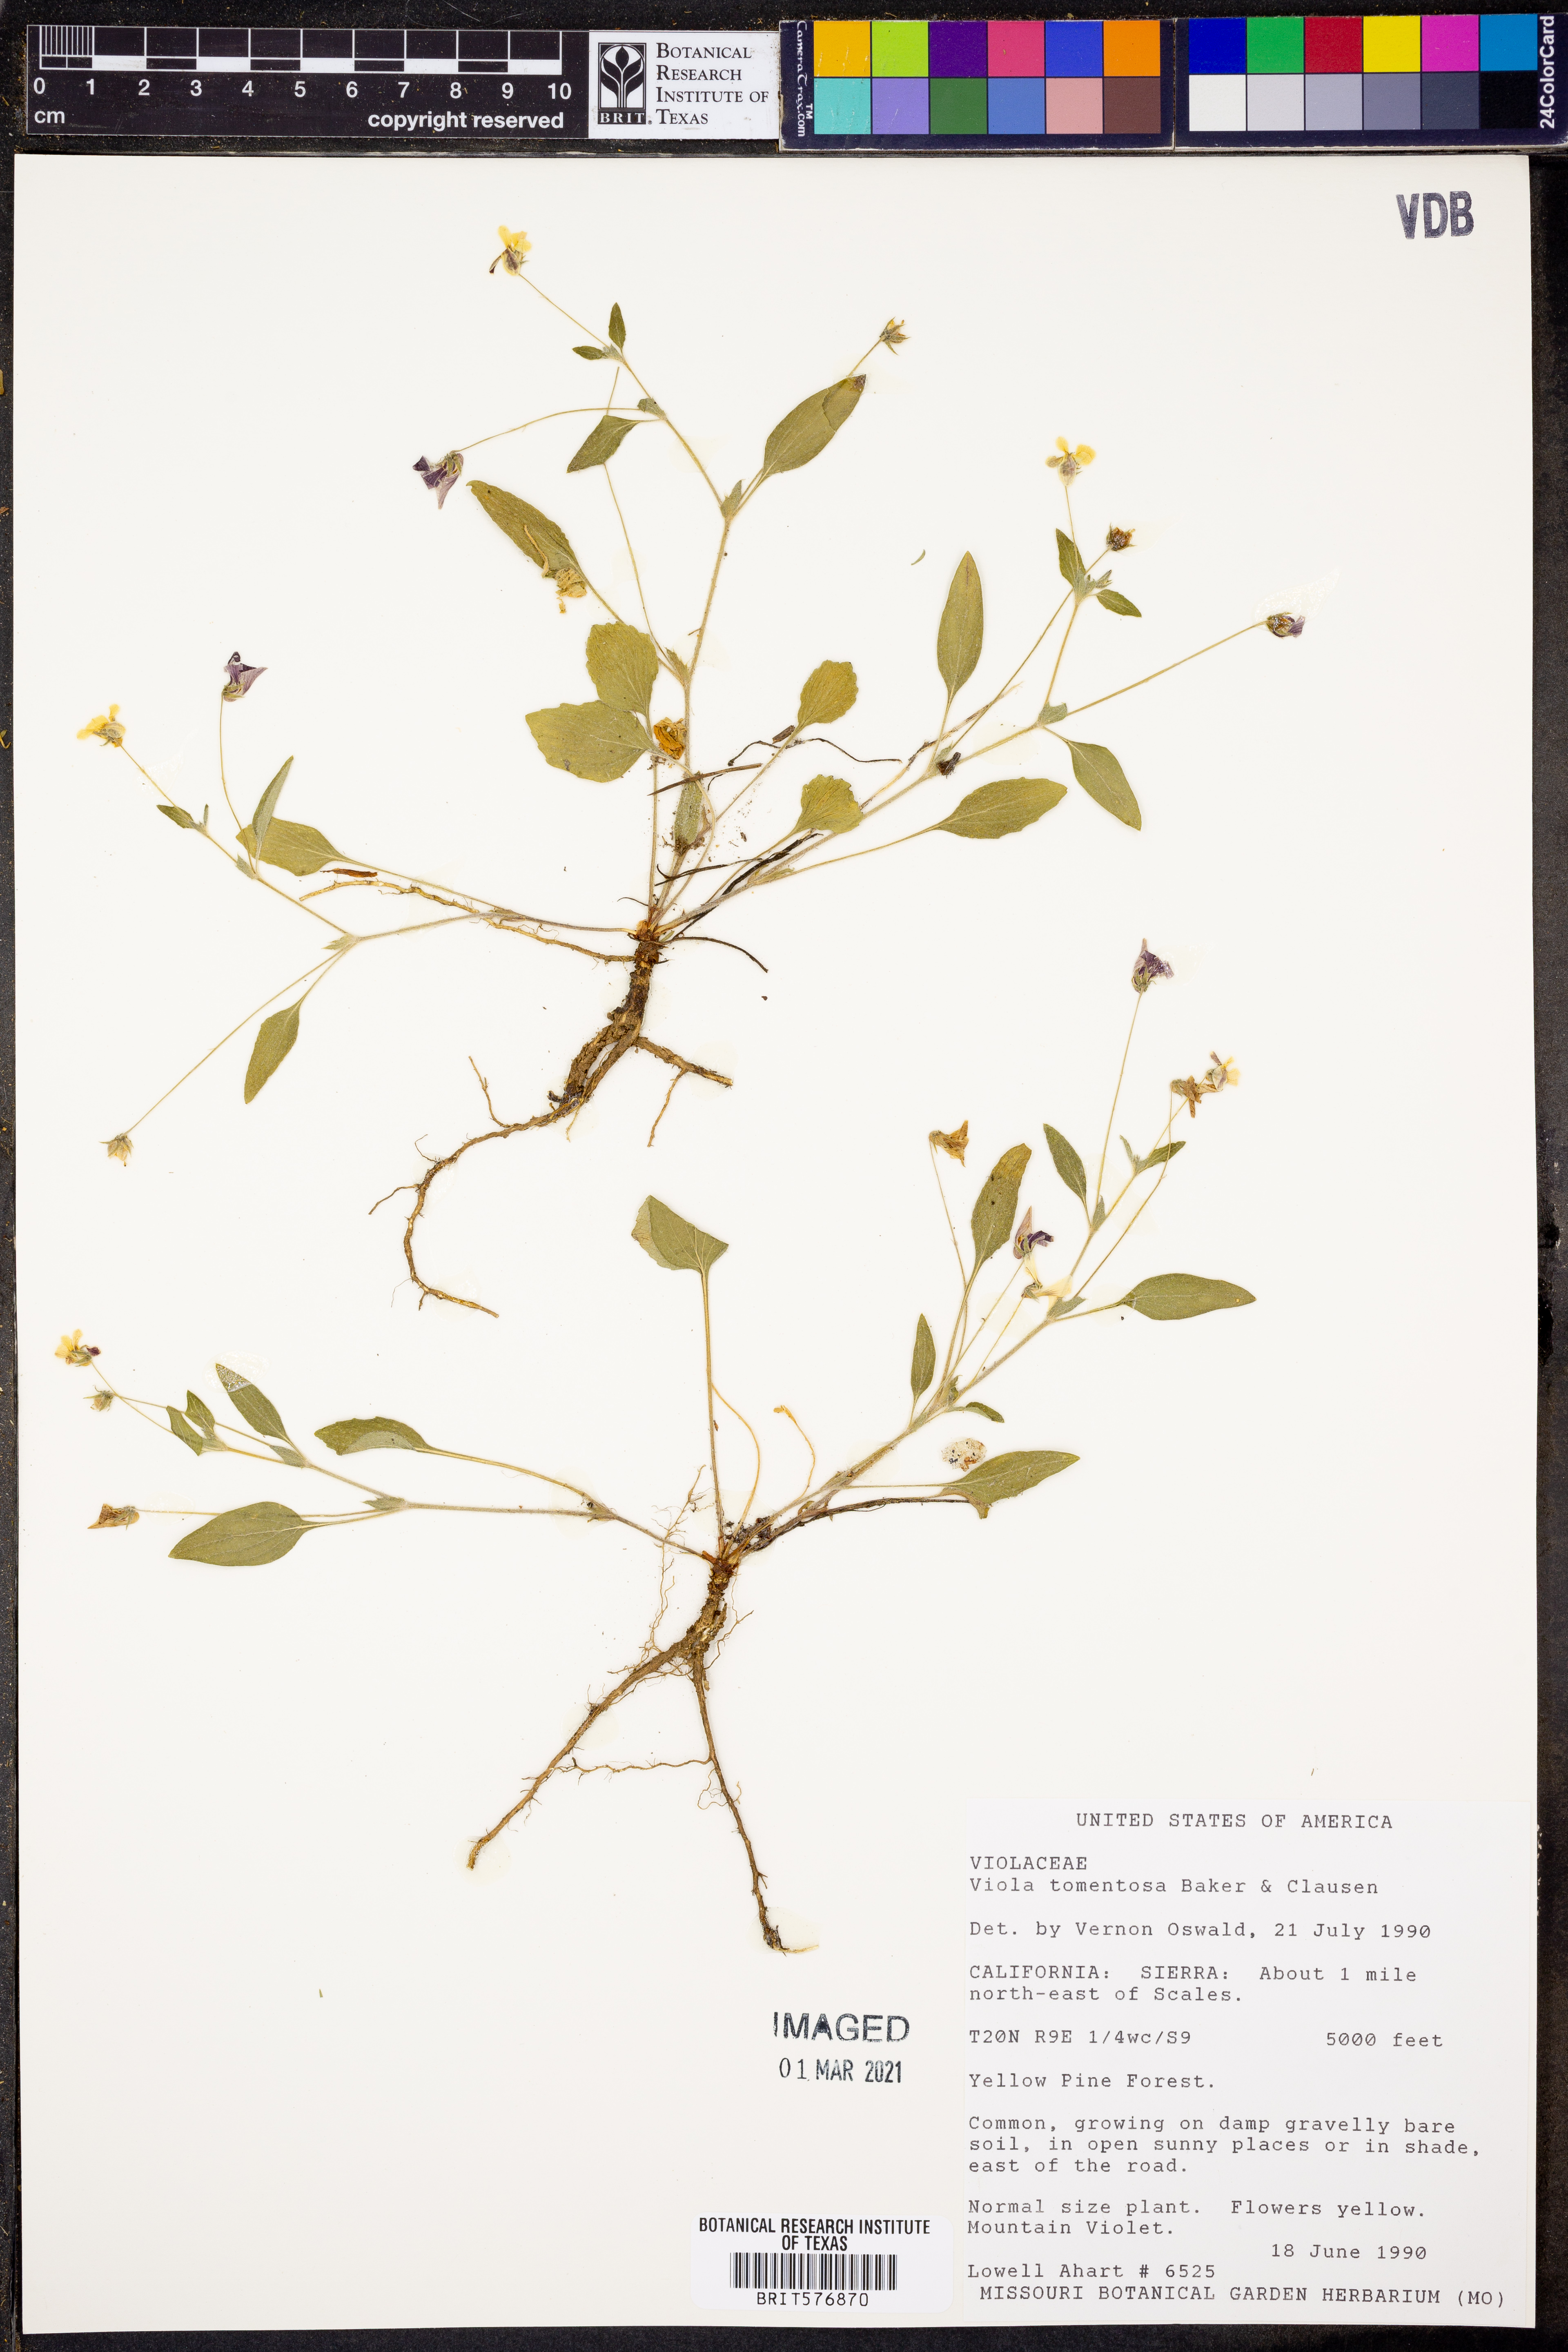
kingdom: Plantae
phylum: Tracheophyta
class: Magnoliopsida
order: Malpighiales
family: Violaceae
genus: Viola
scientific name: Viola tomentosa
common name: Woolly violet
